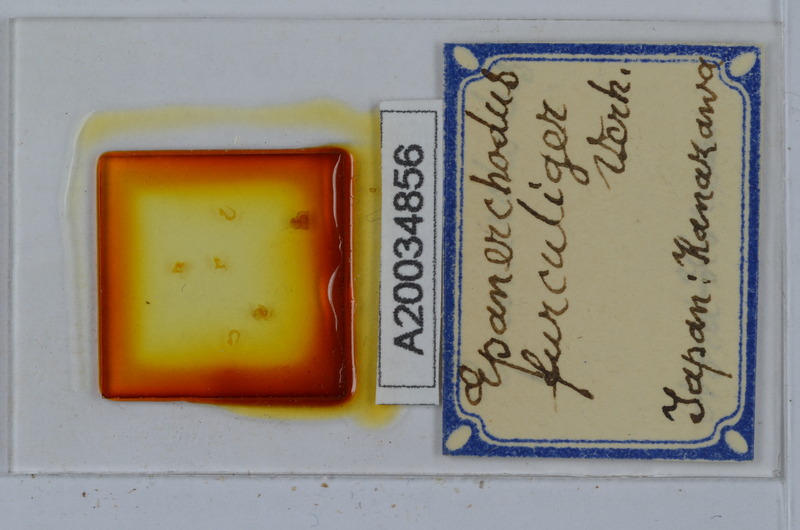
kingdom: Animalia
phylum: Arthropoda
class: Diplopoda
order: Polydesmida
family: Polydesmidae
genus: Epanerchodus
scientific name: Epanerchodus furculiger
